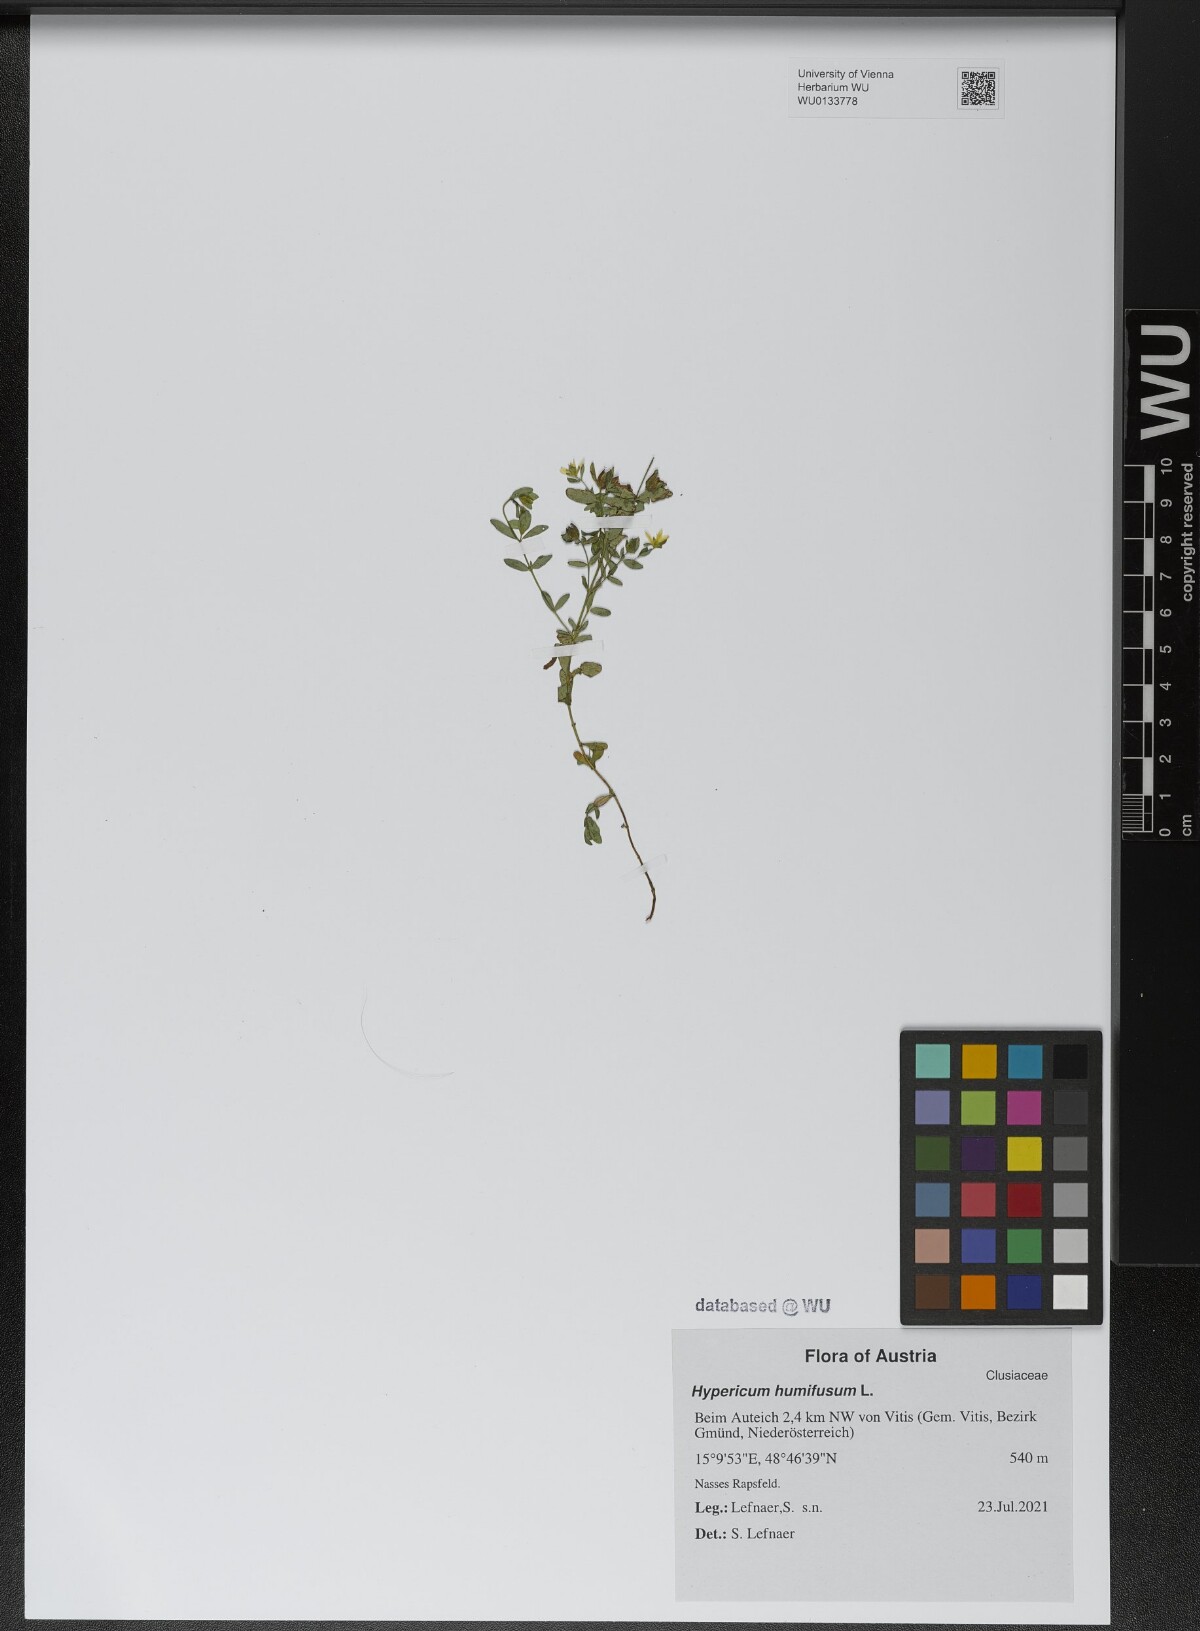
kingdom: Plantae
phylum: Tracheophyta
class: Magnoliopsida
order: Malpighiales
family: Hypericaceae
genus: Hypericum
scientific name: Hypericum humifusum
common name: Trailing st. john's-wort
